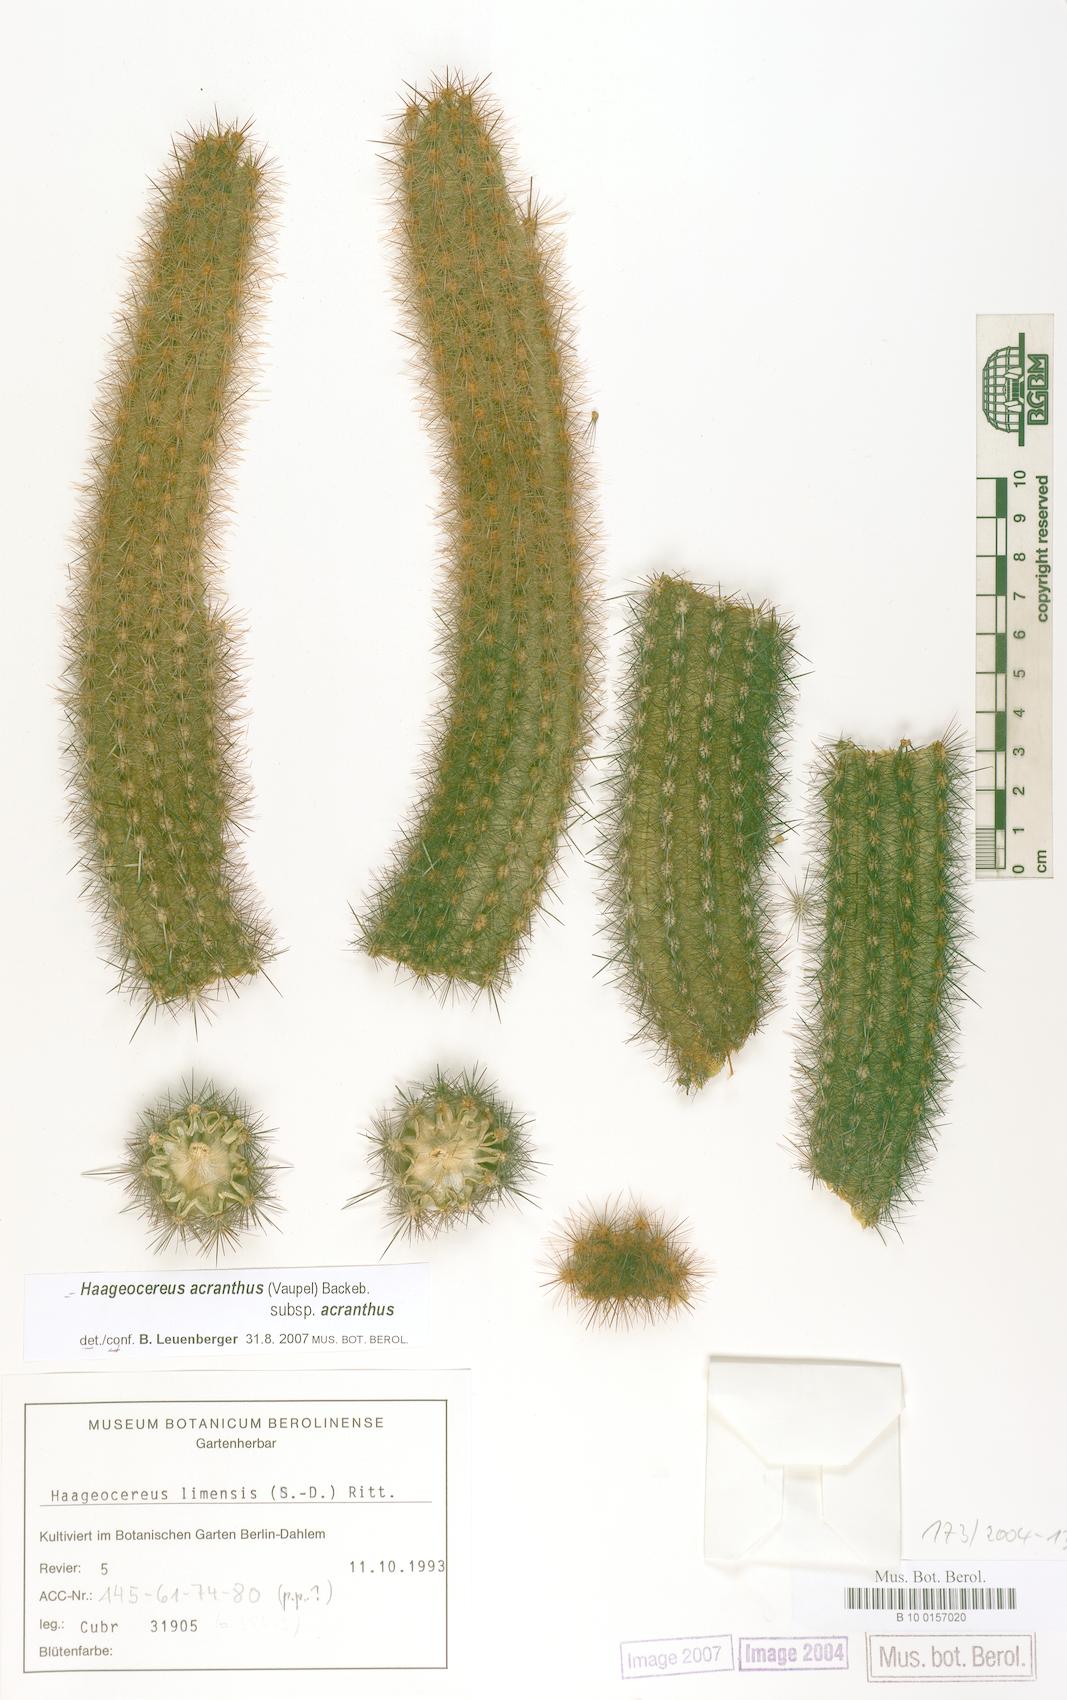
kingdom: Plantae
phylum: Tracheophyta
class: Magnoliopsida
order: Caryophyllales
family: Cactaceae
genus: Haageocereus
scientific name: Haageocereus acranthus
